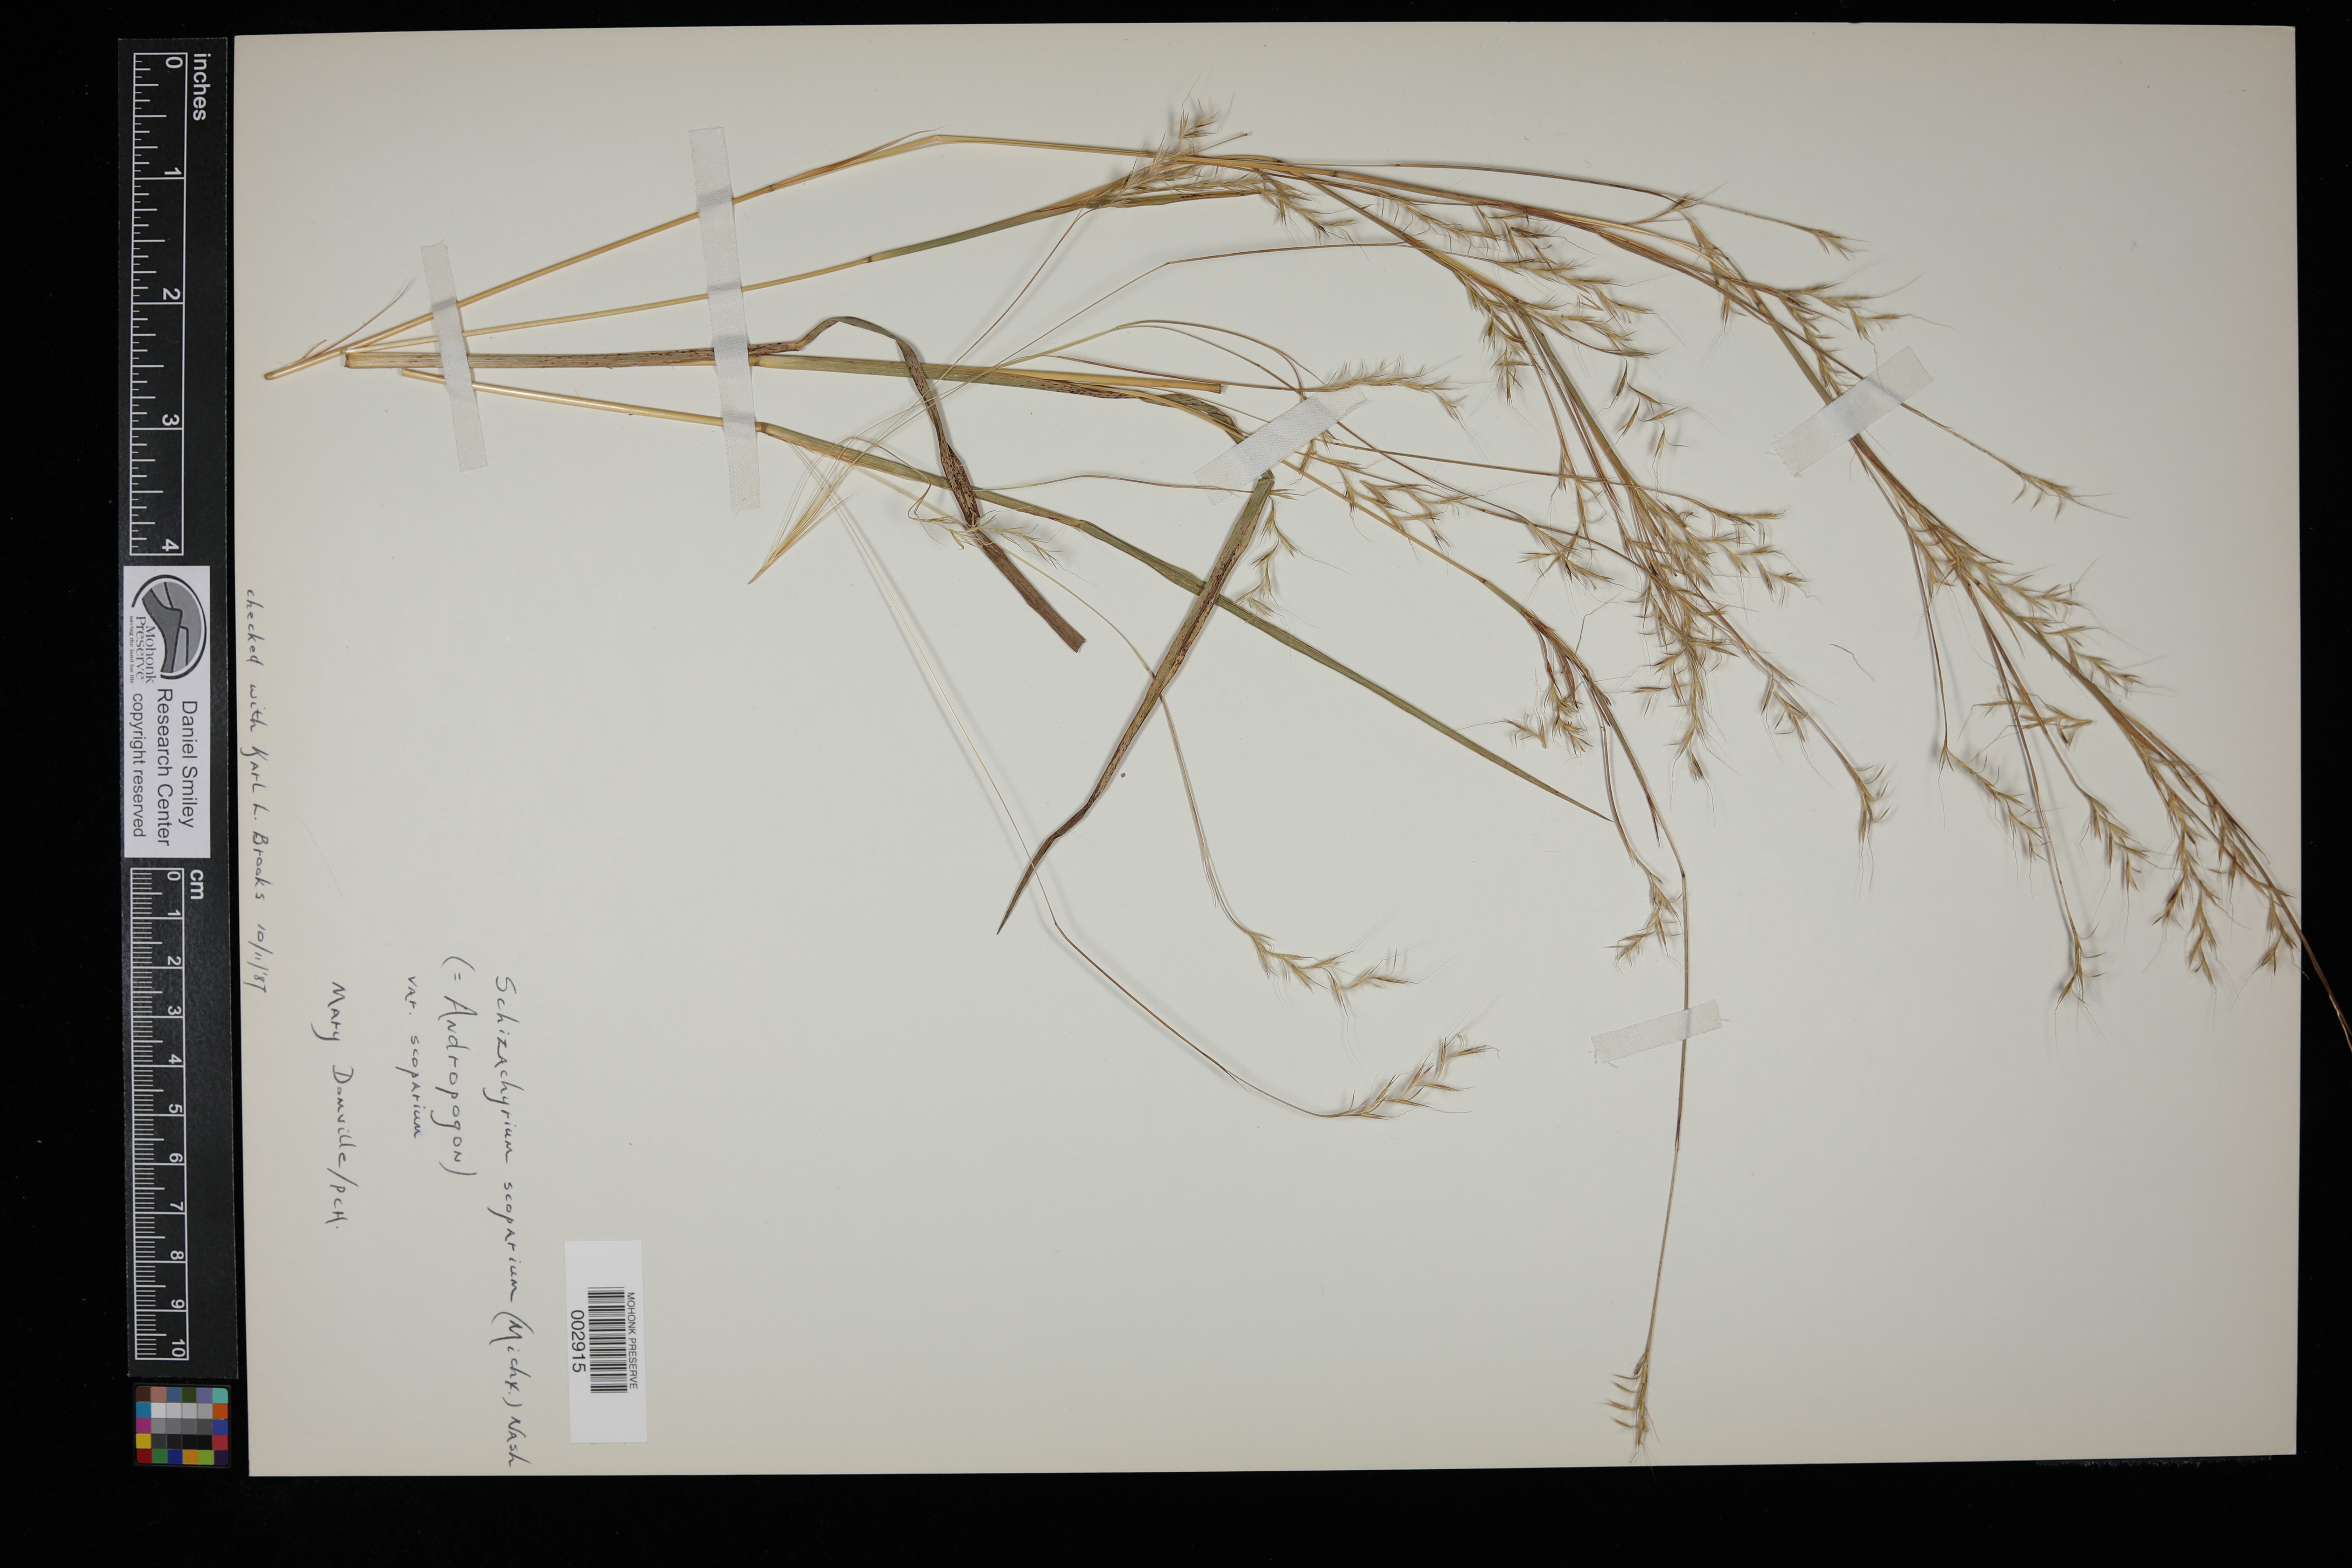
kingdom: Plantae
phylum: Tracheophyta
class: Liliopsida
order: Poales
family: Poaceae
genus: Schizachyrium
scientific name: Schizachyrium scoparium
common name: Little bluestem
